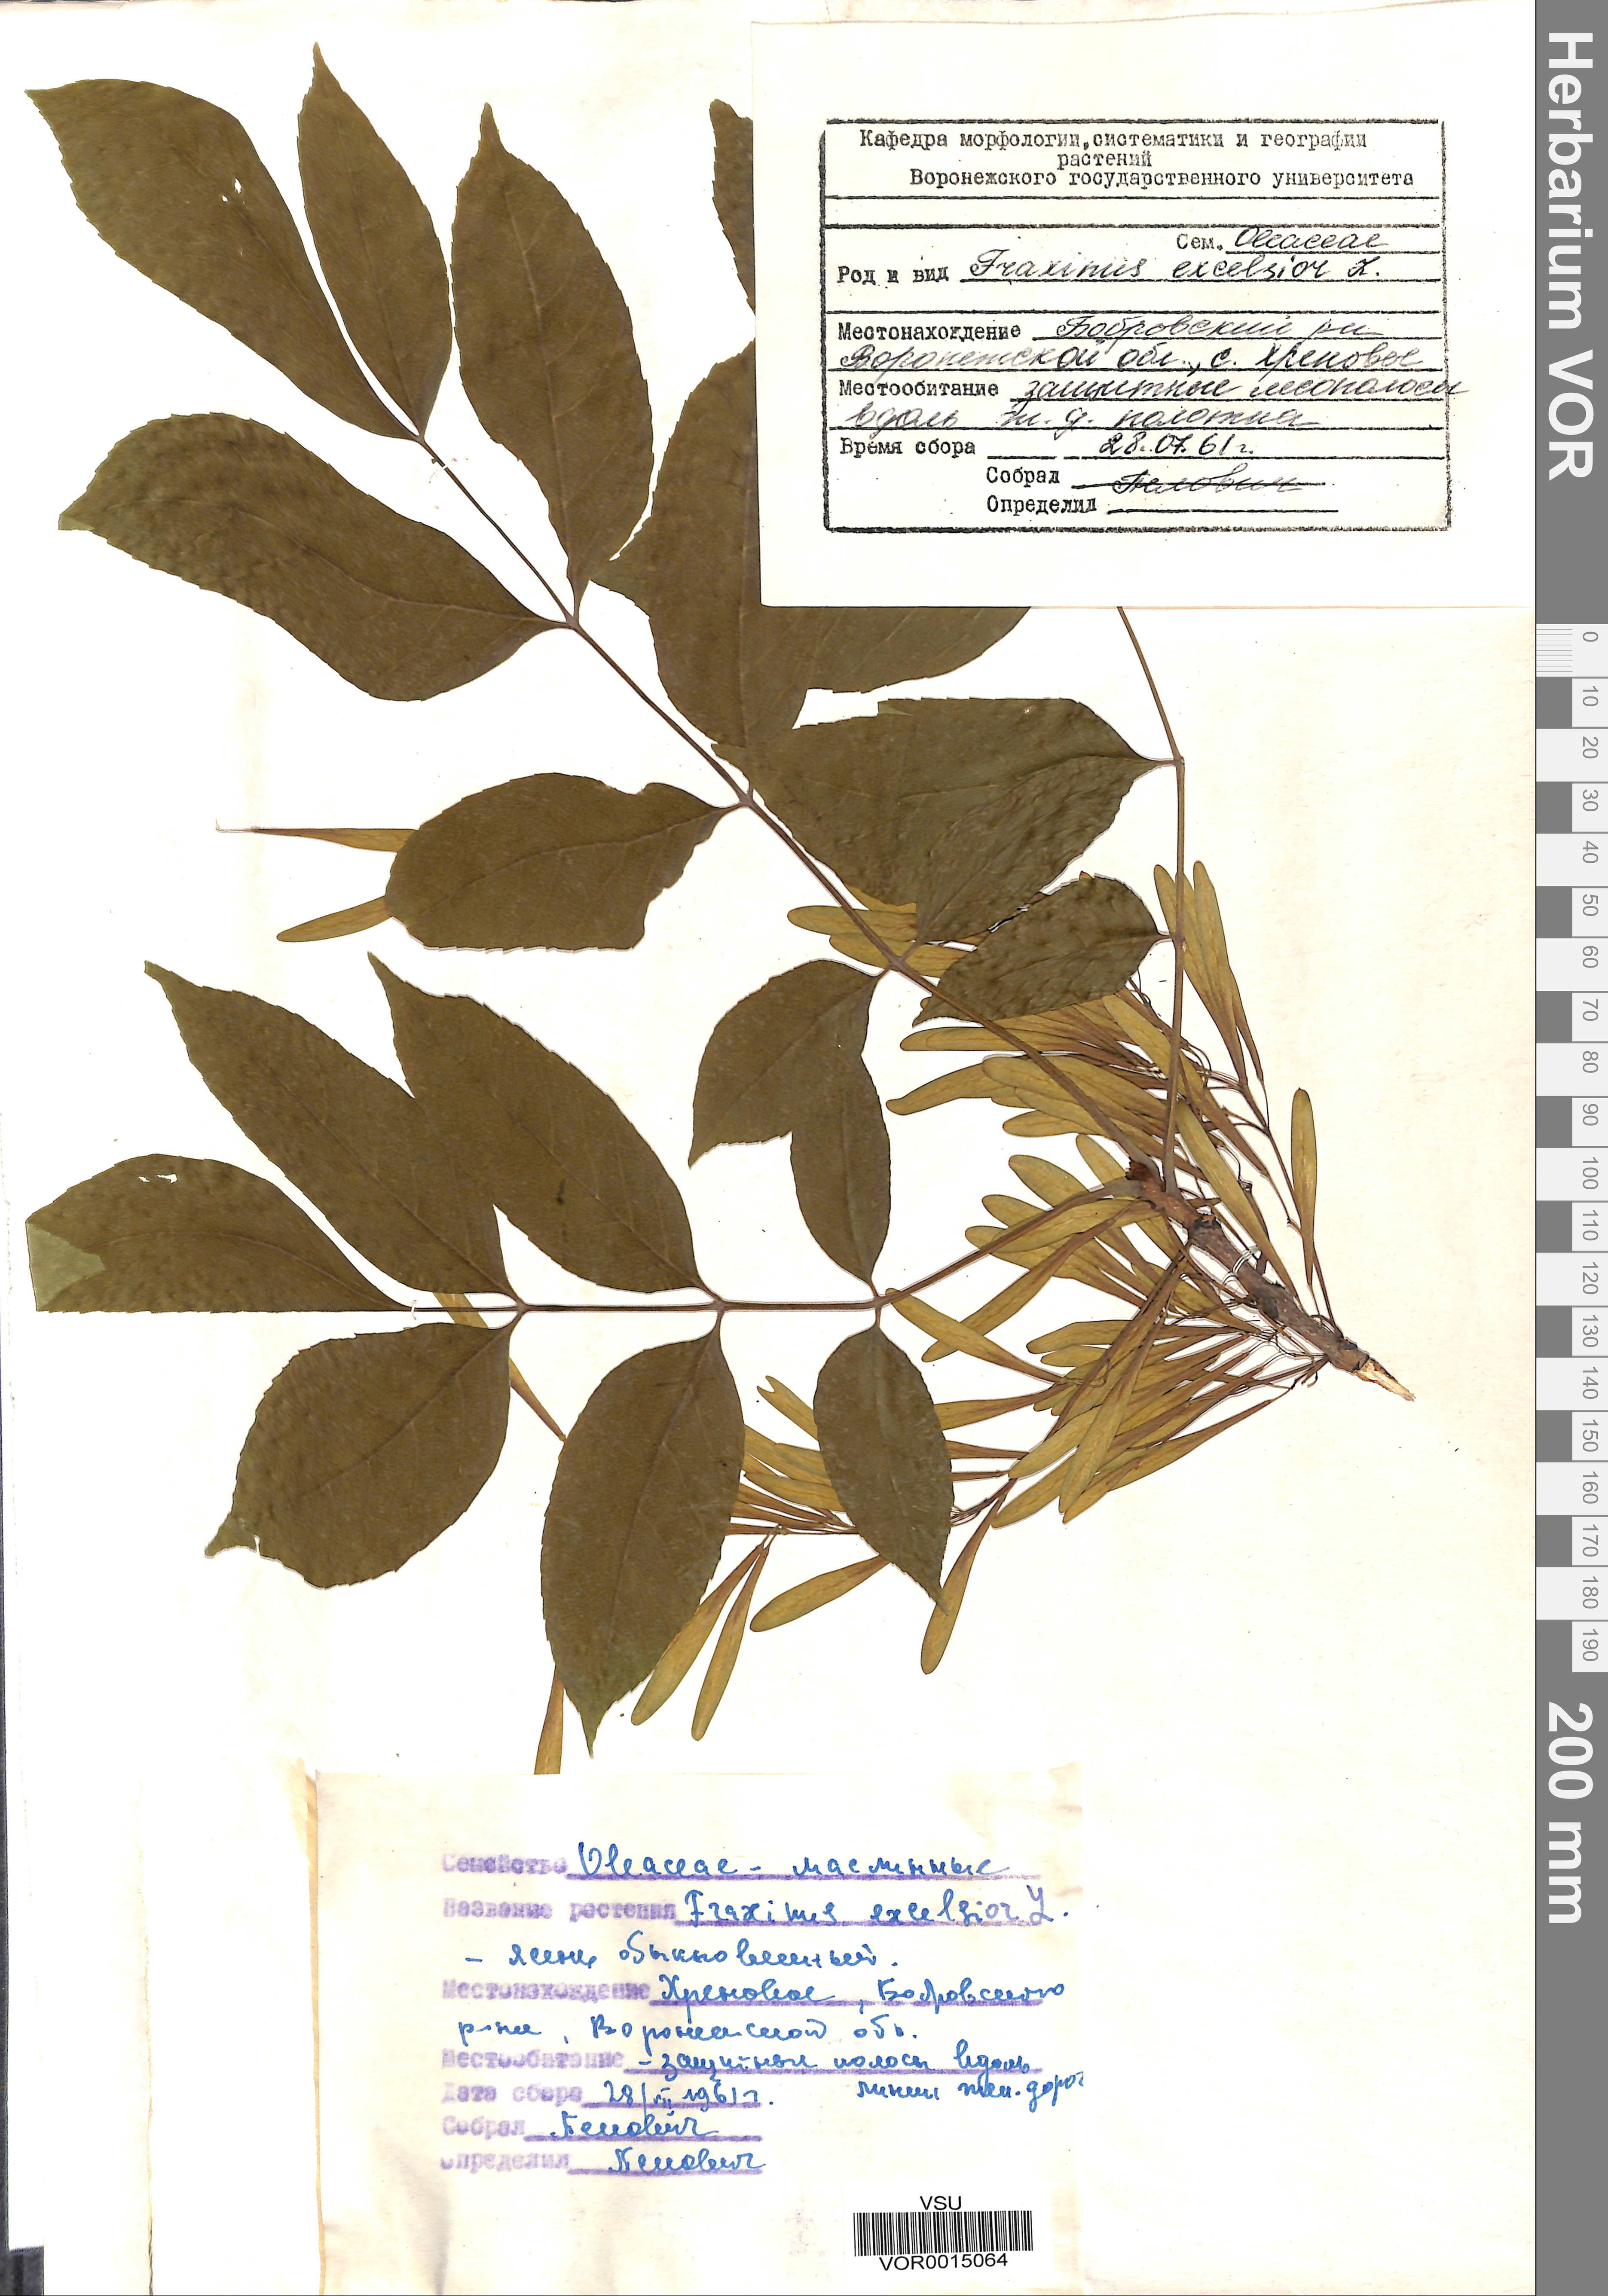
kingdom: Plantae
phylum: Tracheophyta
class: Magnoliopsida
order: Lamiales
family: Oleaceae
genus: Fraxinus
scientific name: Fraxinus excelsior
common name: European ash
